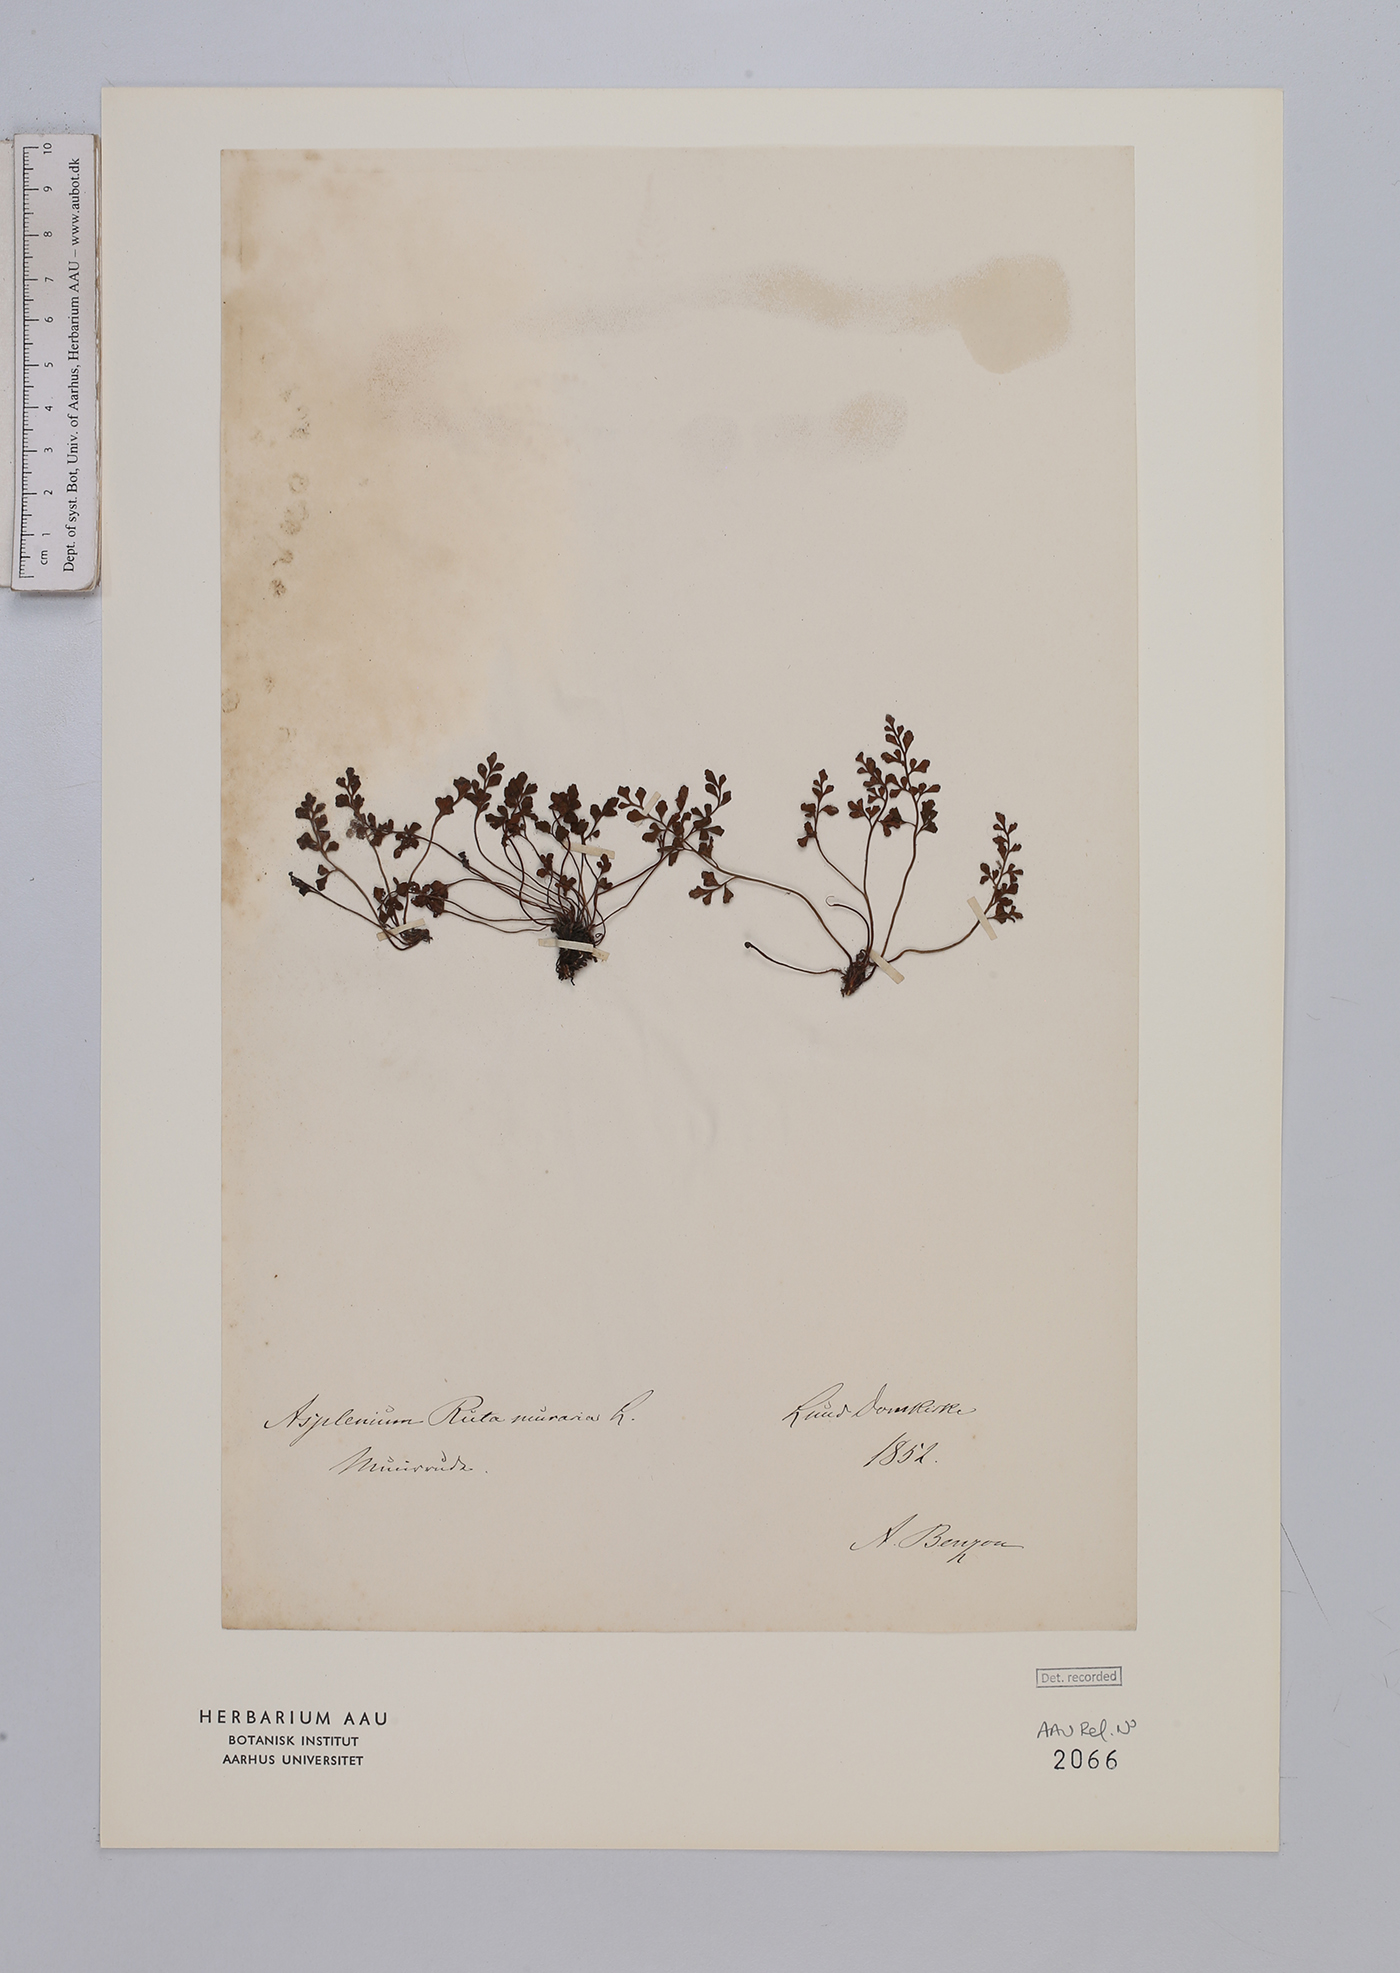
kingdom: Plantae
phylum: Tracheophyta
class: Polypodiopsida
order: Polypodiales
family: Aspleniaceae
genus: Asplenium
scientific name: Asplenium ruta-muraria
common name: Wall-rue
